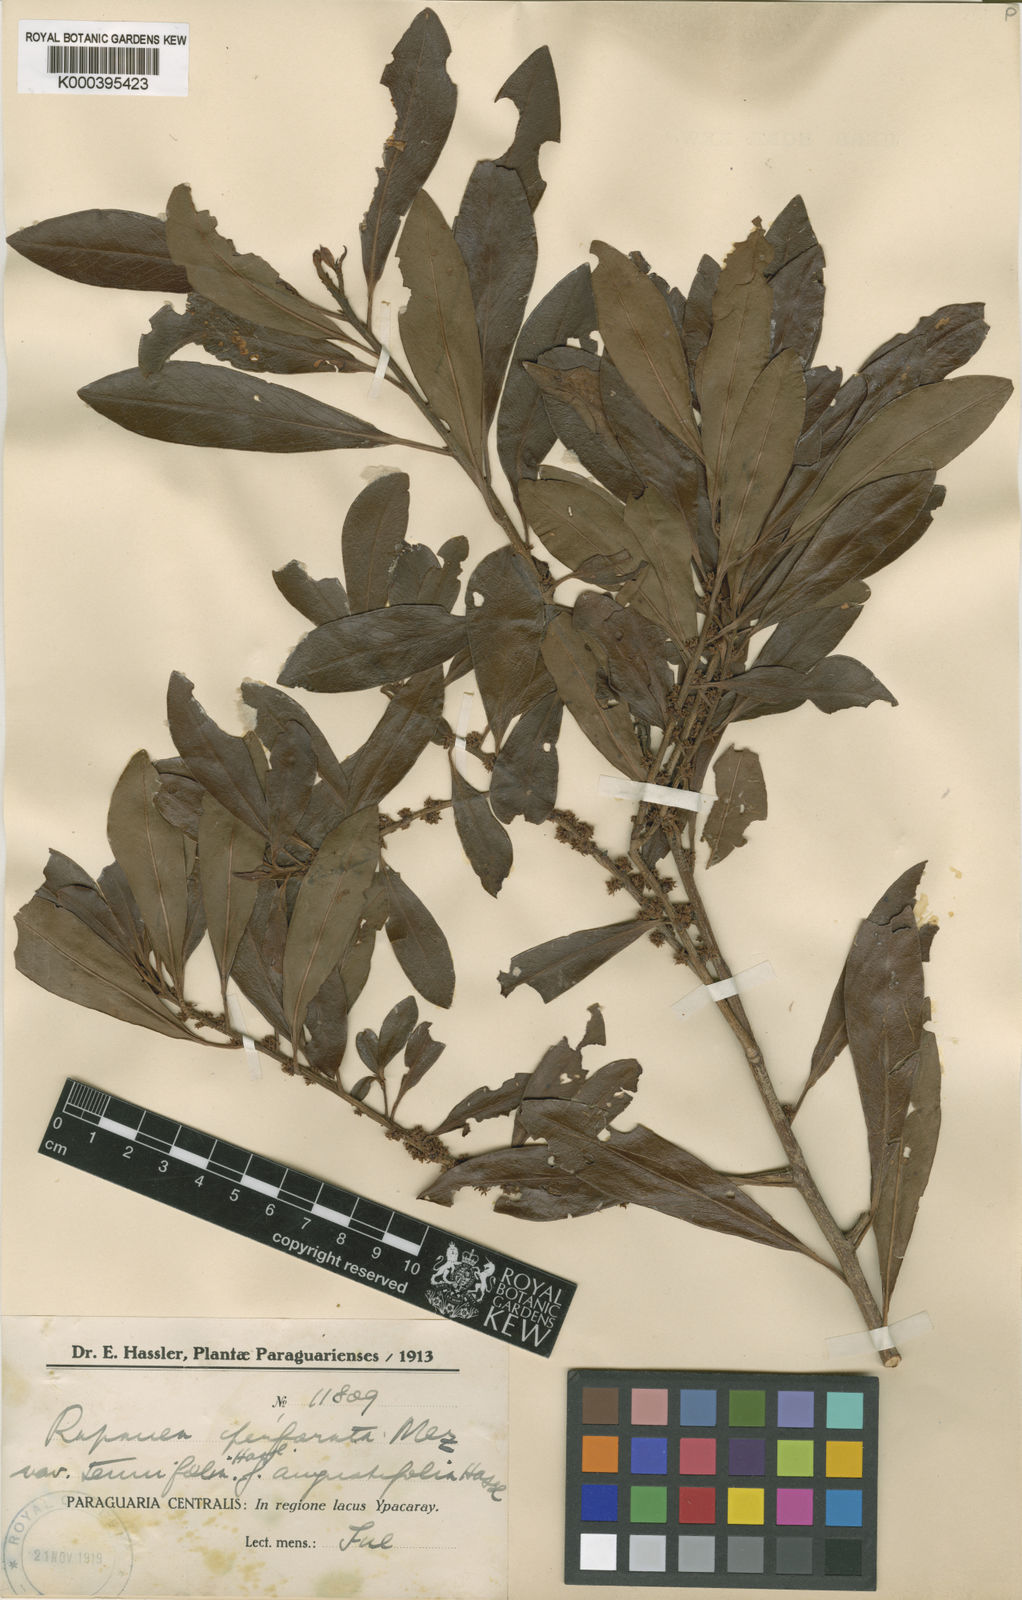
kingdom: Plantae
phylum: Tracheophyta
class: Magnoliopsida
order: Ericales
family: Primulaceae
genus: Myrsine
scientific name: Myrsine matensis
